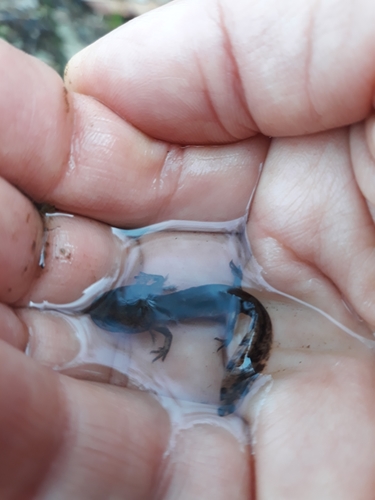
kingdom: Animalia
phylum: Chordata
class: Amphibia
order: Caudata
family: Salamandridae
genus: Salamandra
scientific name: Salamandra salamandra
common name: Fire salamander
